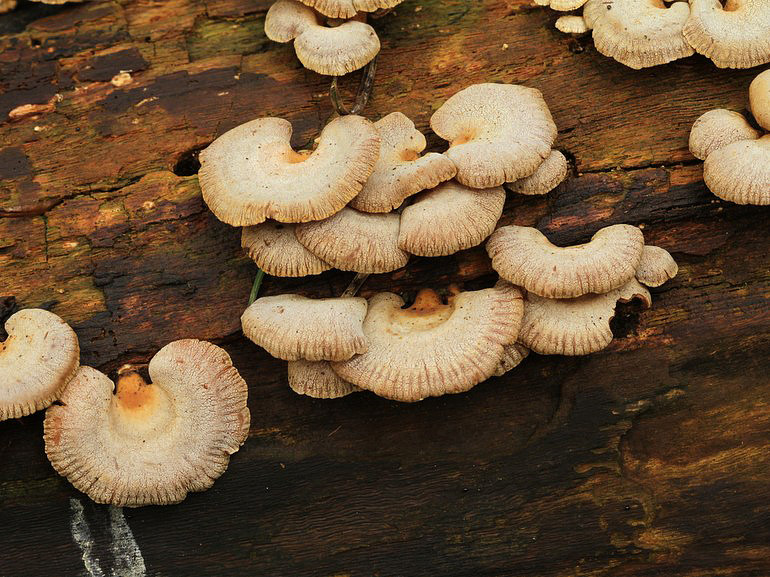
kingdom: Fungi
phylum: Basidiomycota
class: Agaricomycetes
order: Agaricales
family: Mycenaceae
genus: Panellus
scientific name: Panellus stipticus
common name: kliddet epaulethat
